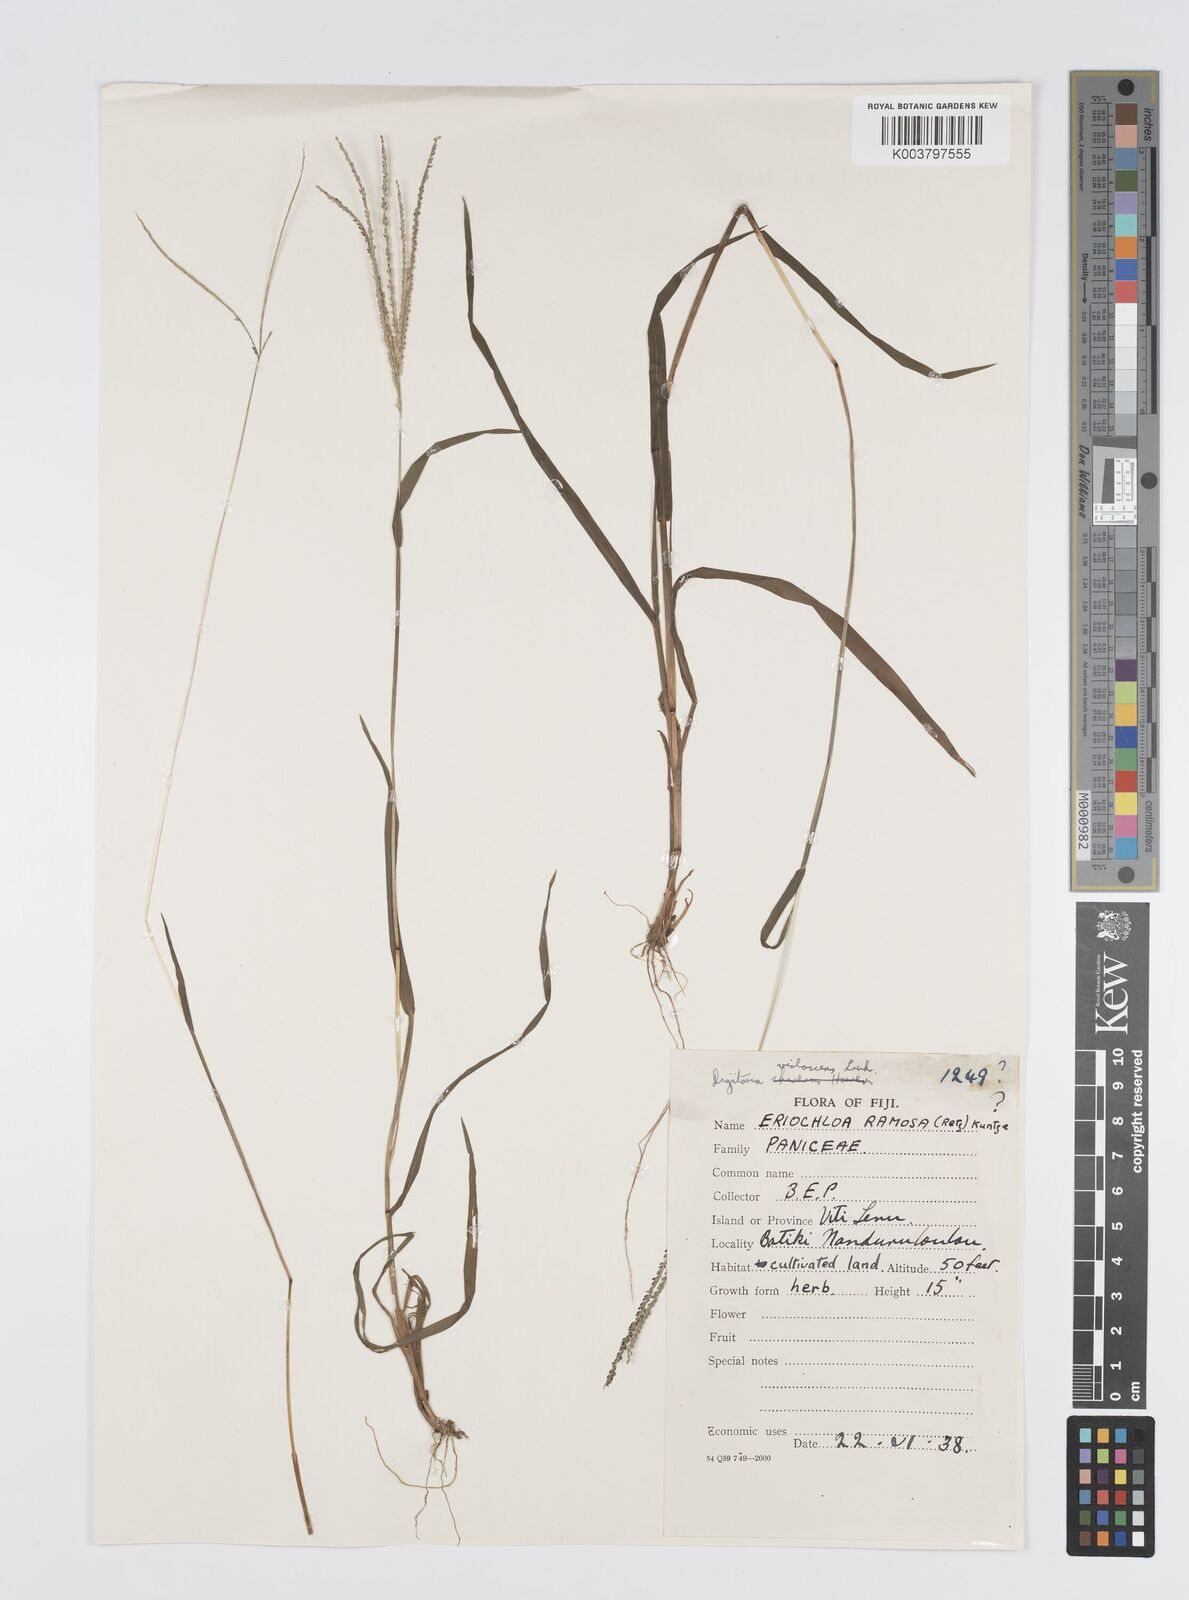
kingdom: Plantae
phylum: Tracheophyta
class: Liliopsida
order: Poales
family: Poaceae
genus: Digitaria
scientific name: Digitaria violascens
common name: Violet crabgrass
